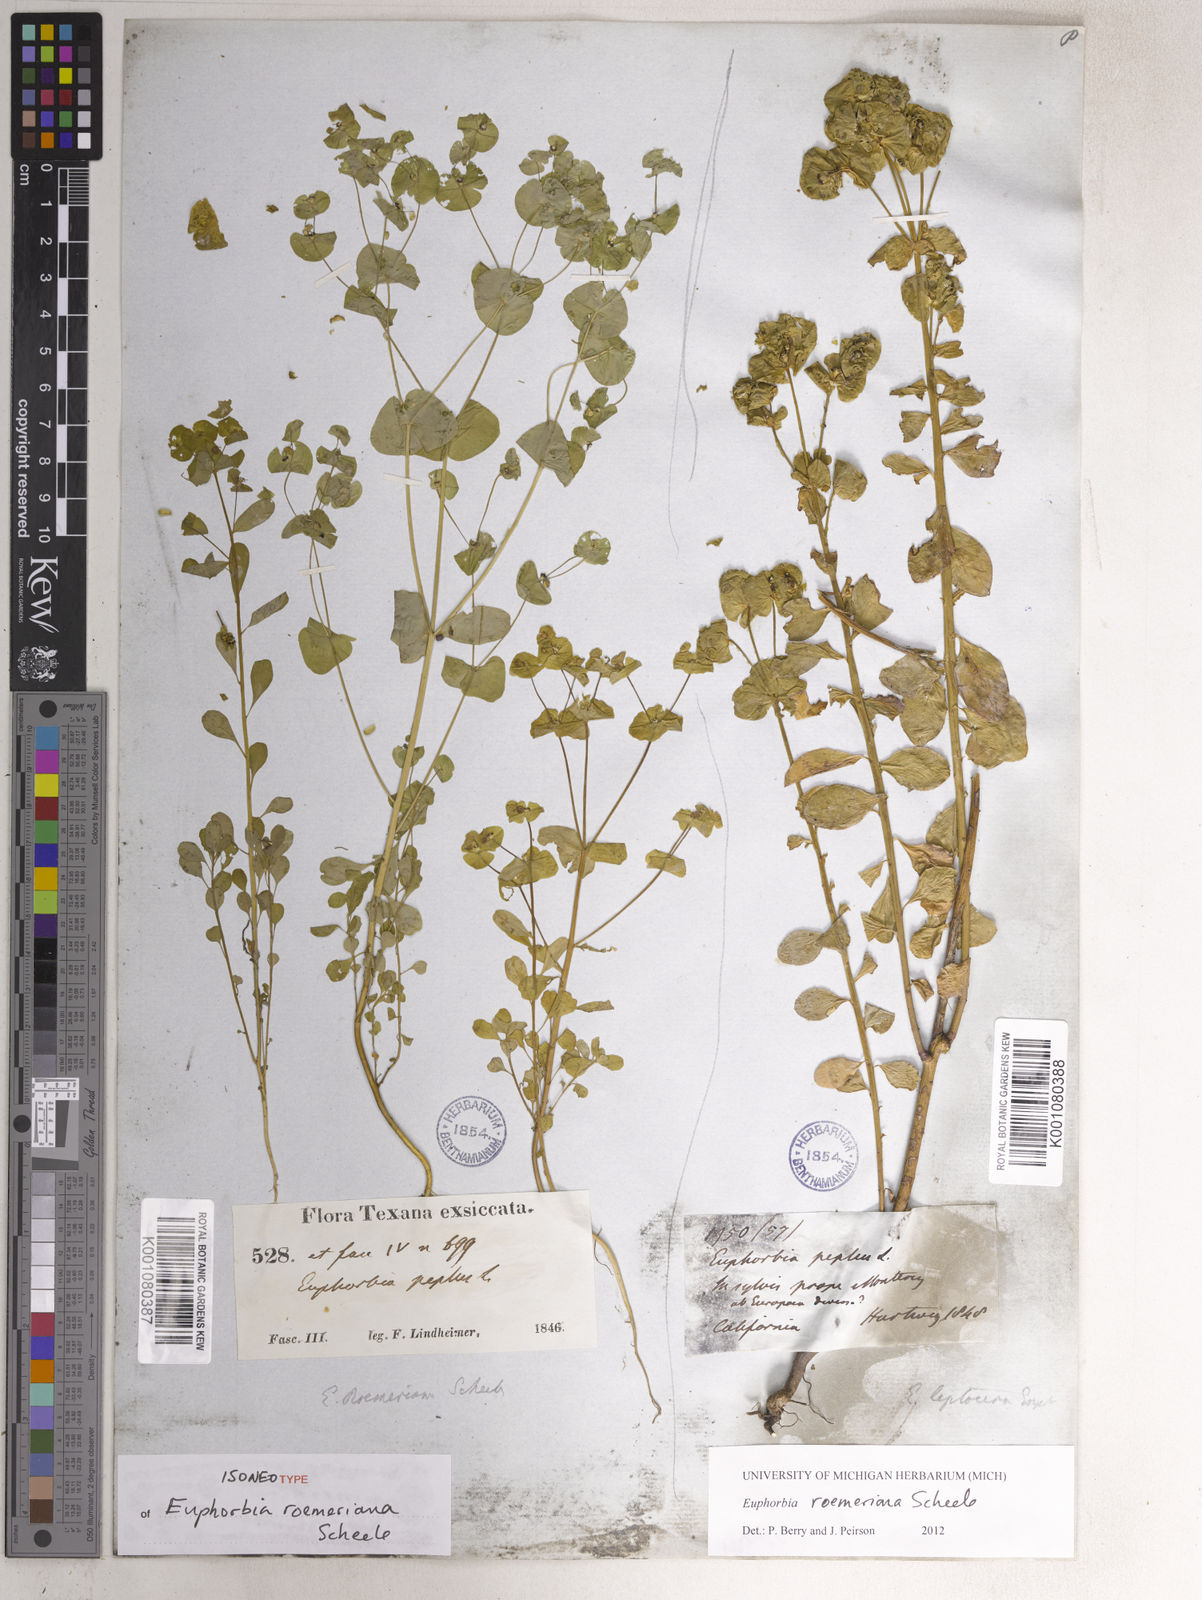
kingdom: Plantae
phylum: Tracheophyta
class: Magnoliopsida
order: Malpighiales
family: Euphorbiaceae
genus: Euphorbia
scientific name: Euphorbia roemeriana
